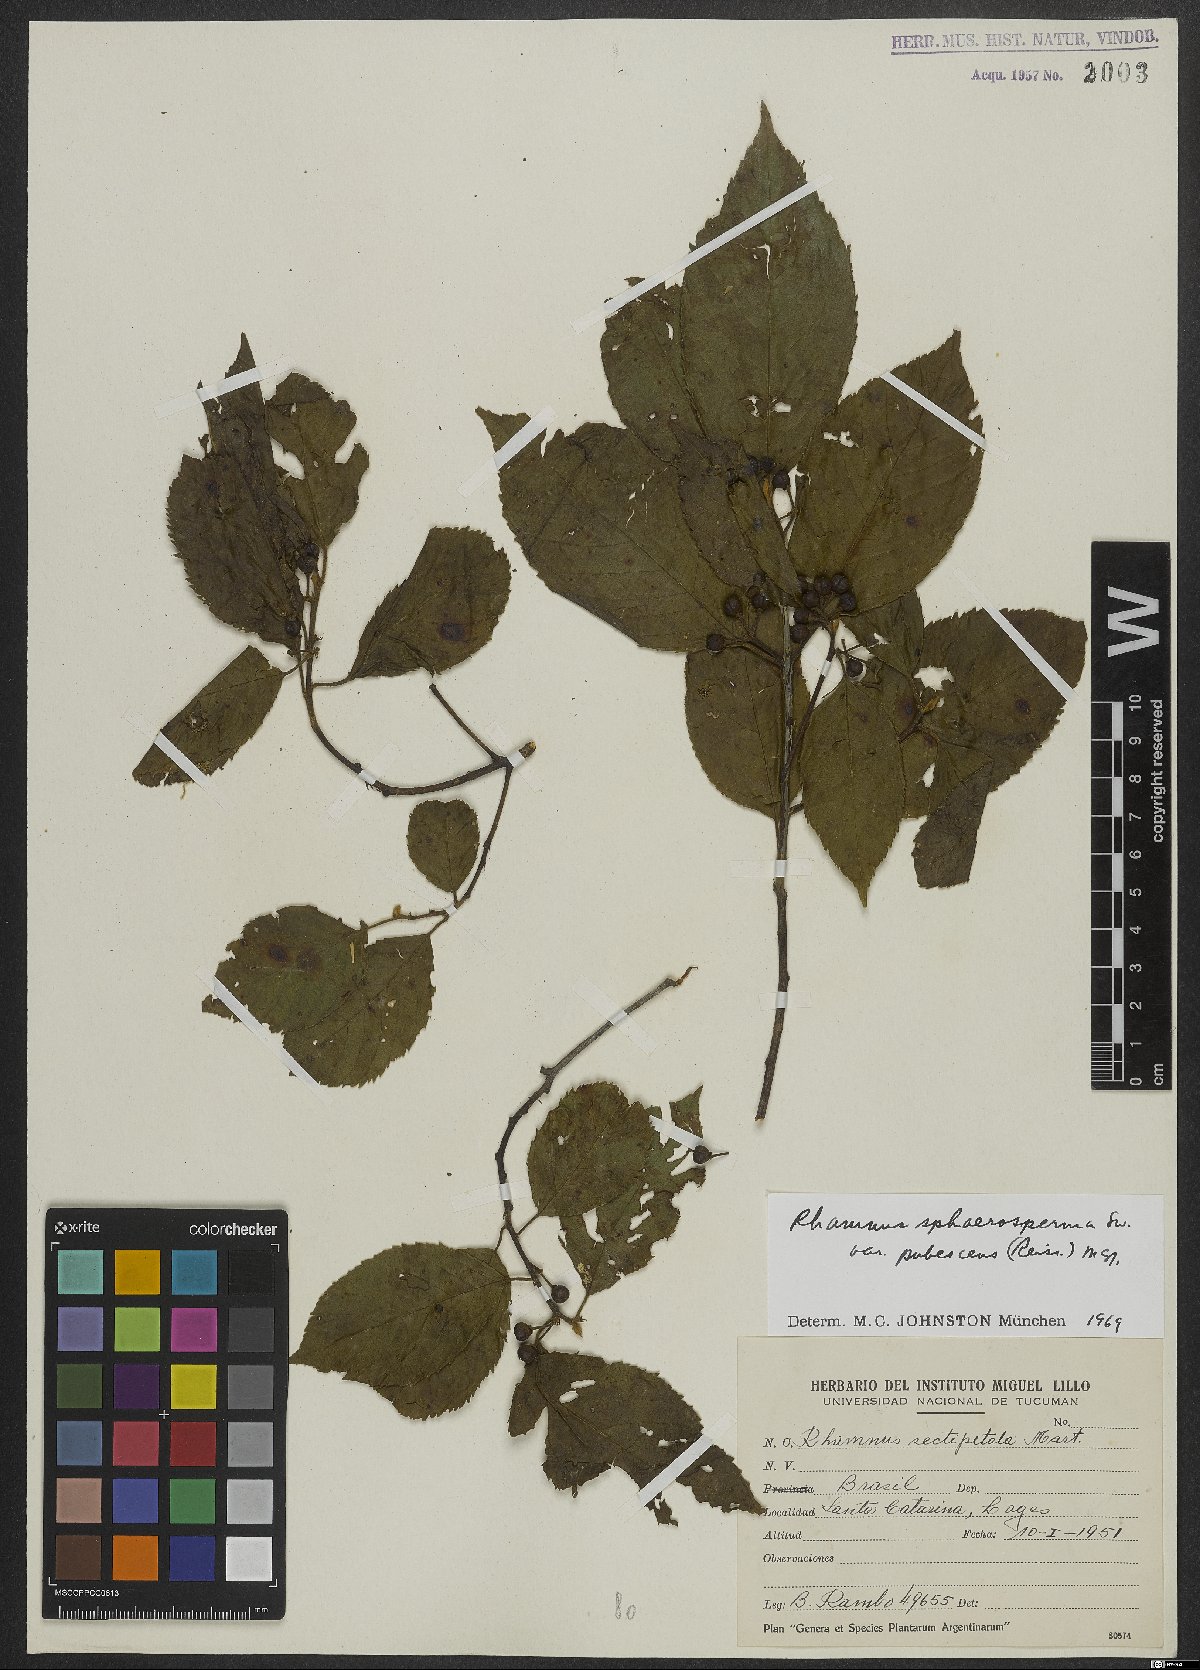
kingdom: Plantae
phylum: Tracheophyta
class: Magnoliopsida
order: Rosales
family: Rhamnaceae
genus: Frangula
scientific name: Frangula sphaerosperma
